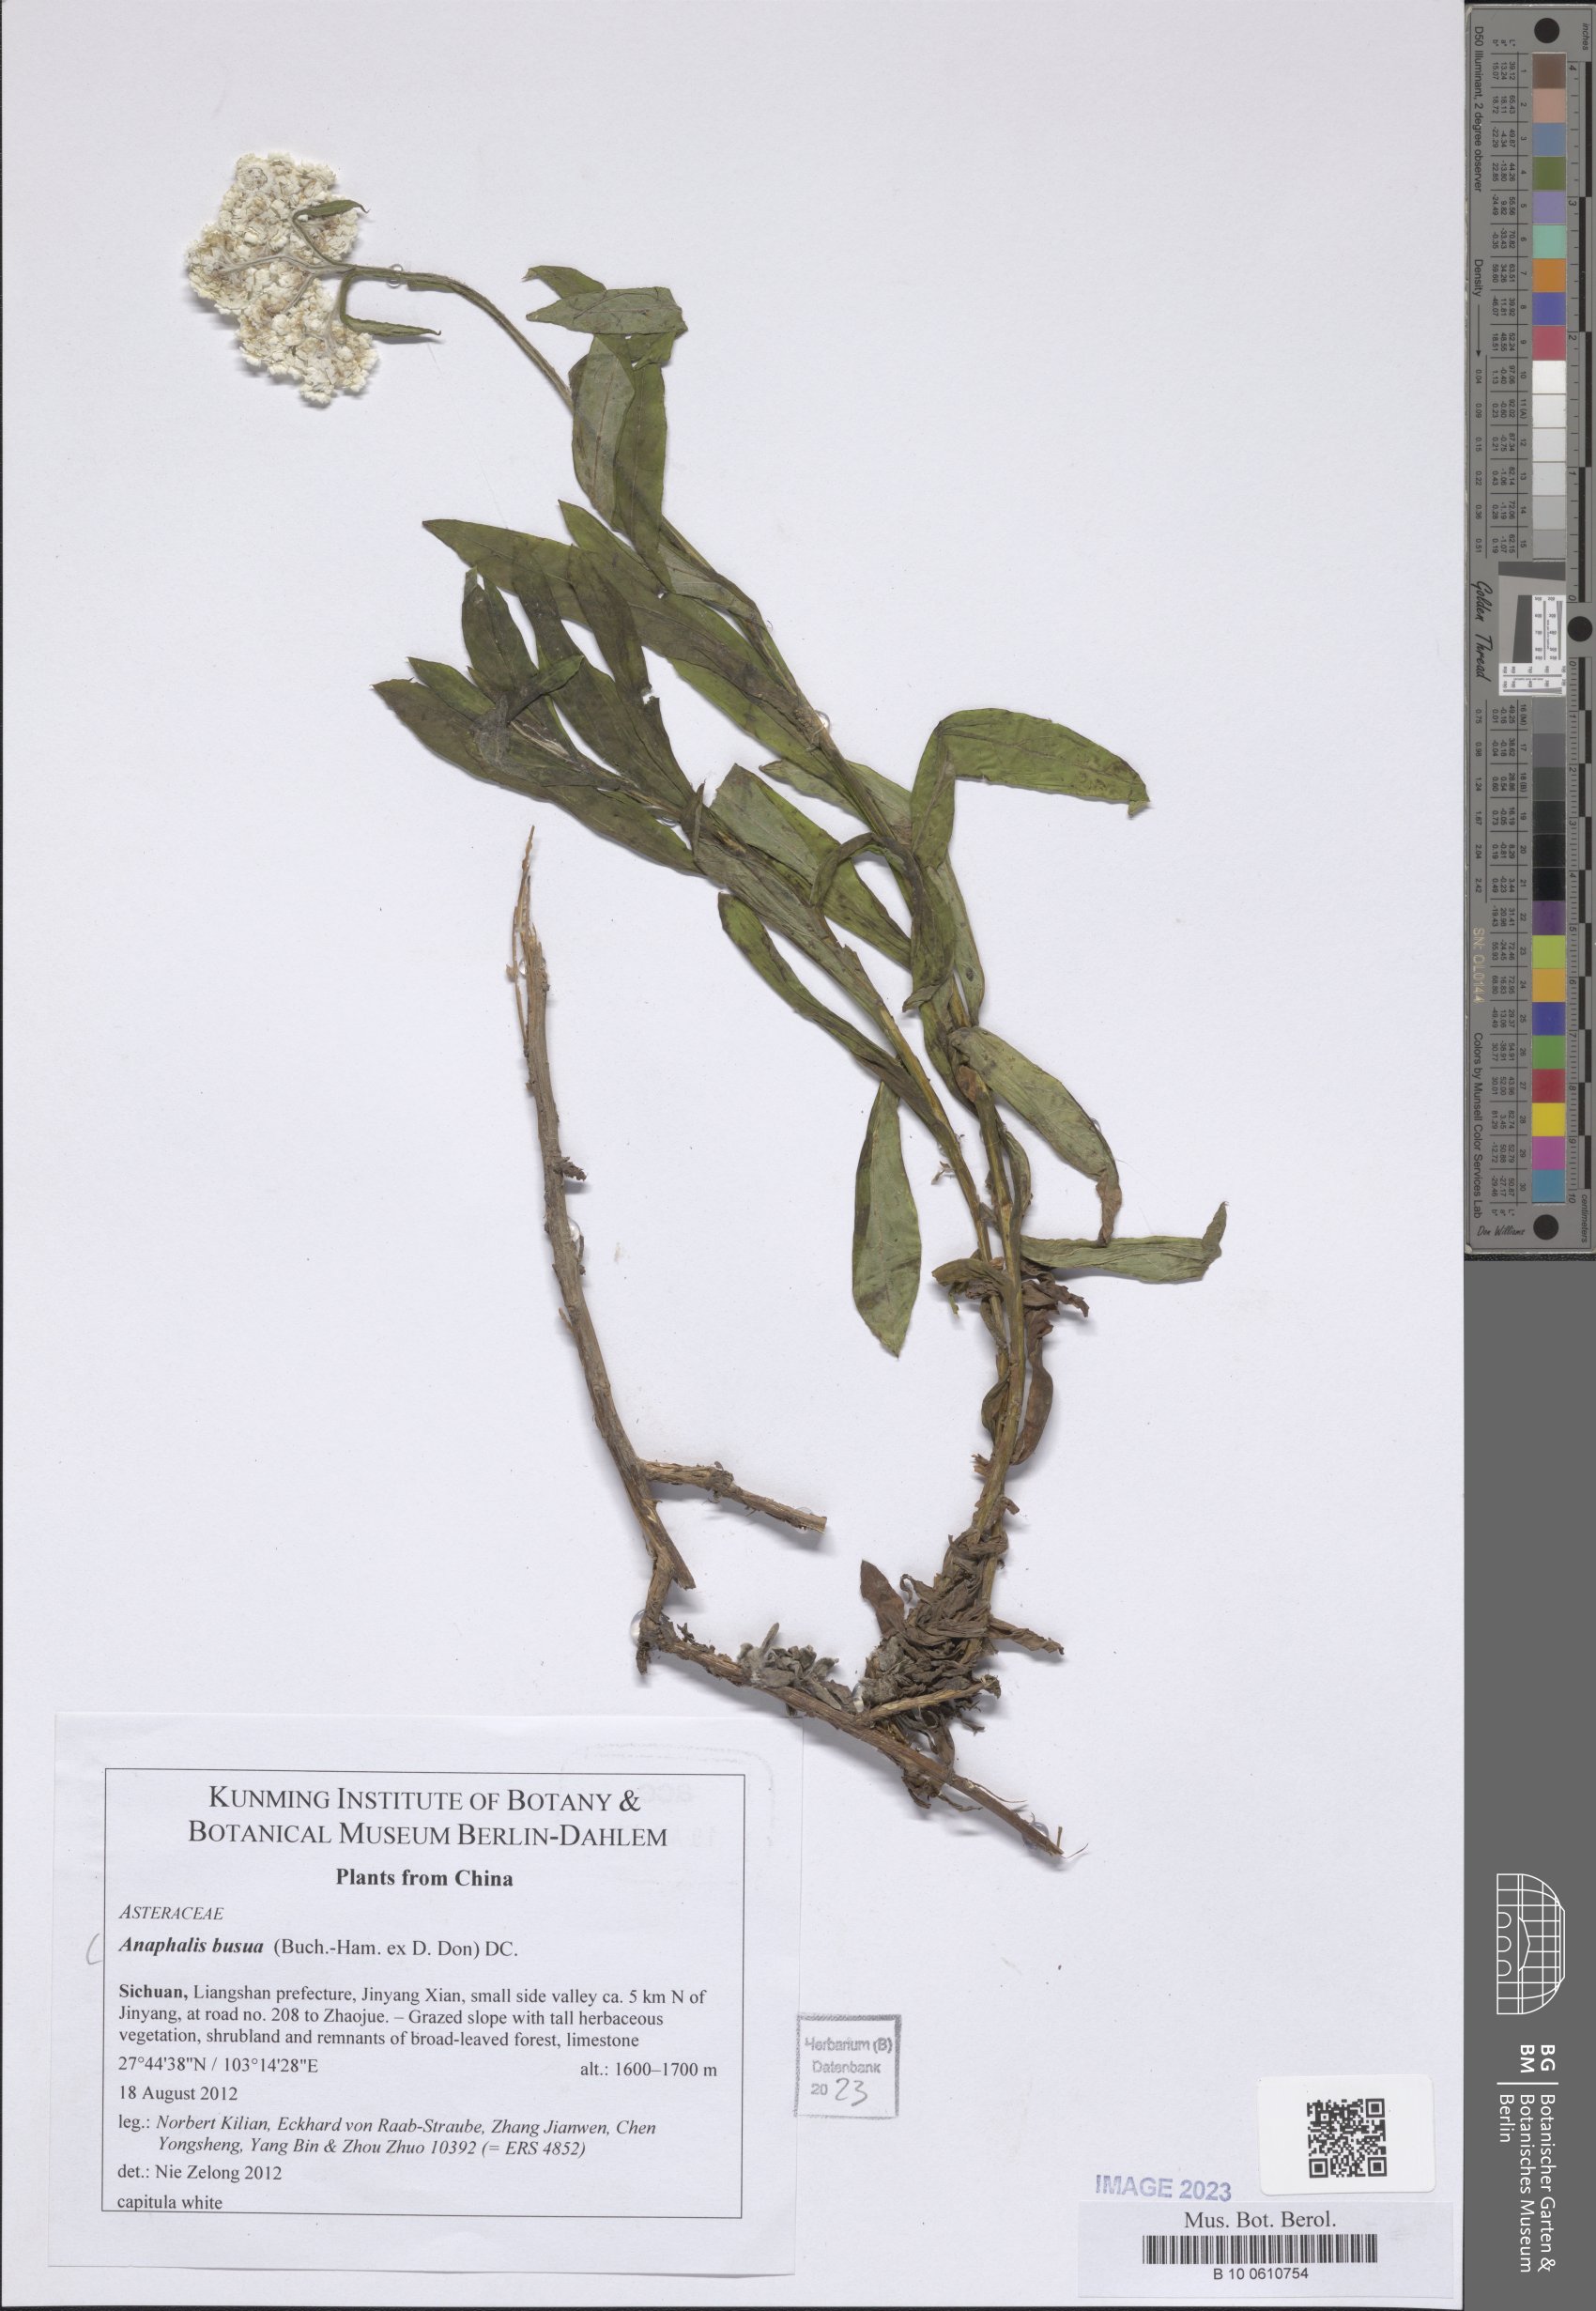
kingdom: Plantae
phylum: Tracheophyta
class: Magnoliopsida
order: Asterales
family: Asteraceae
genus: Anaphalis
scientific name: Anaphalis busua
